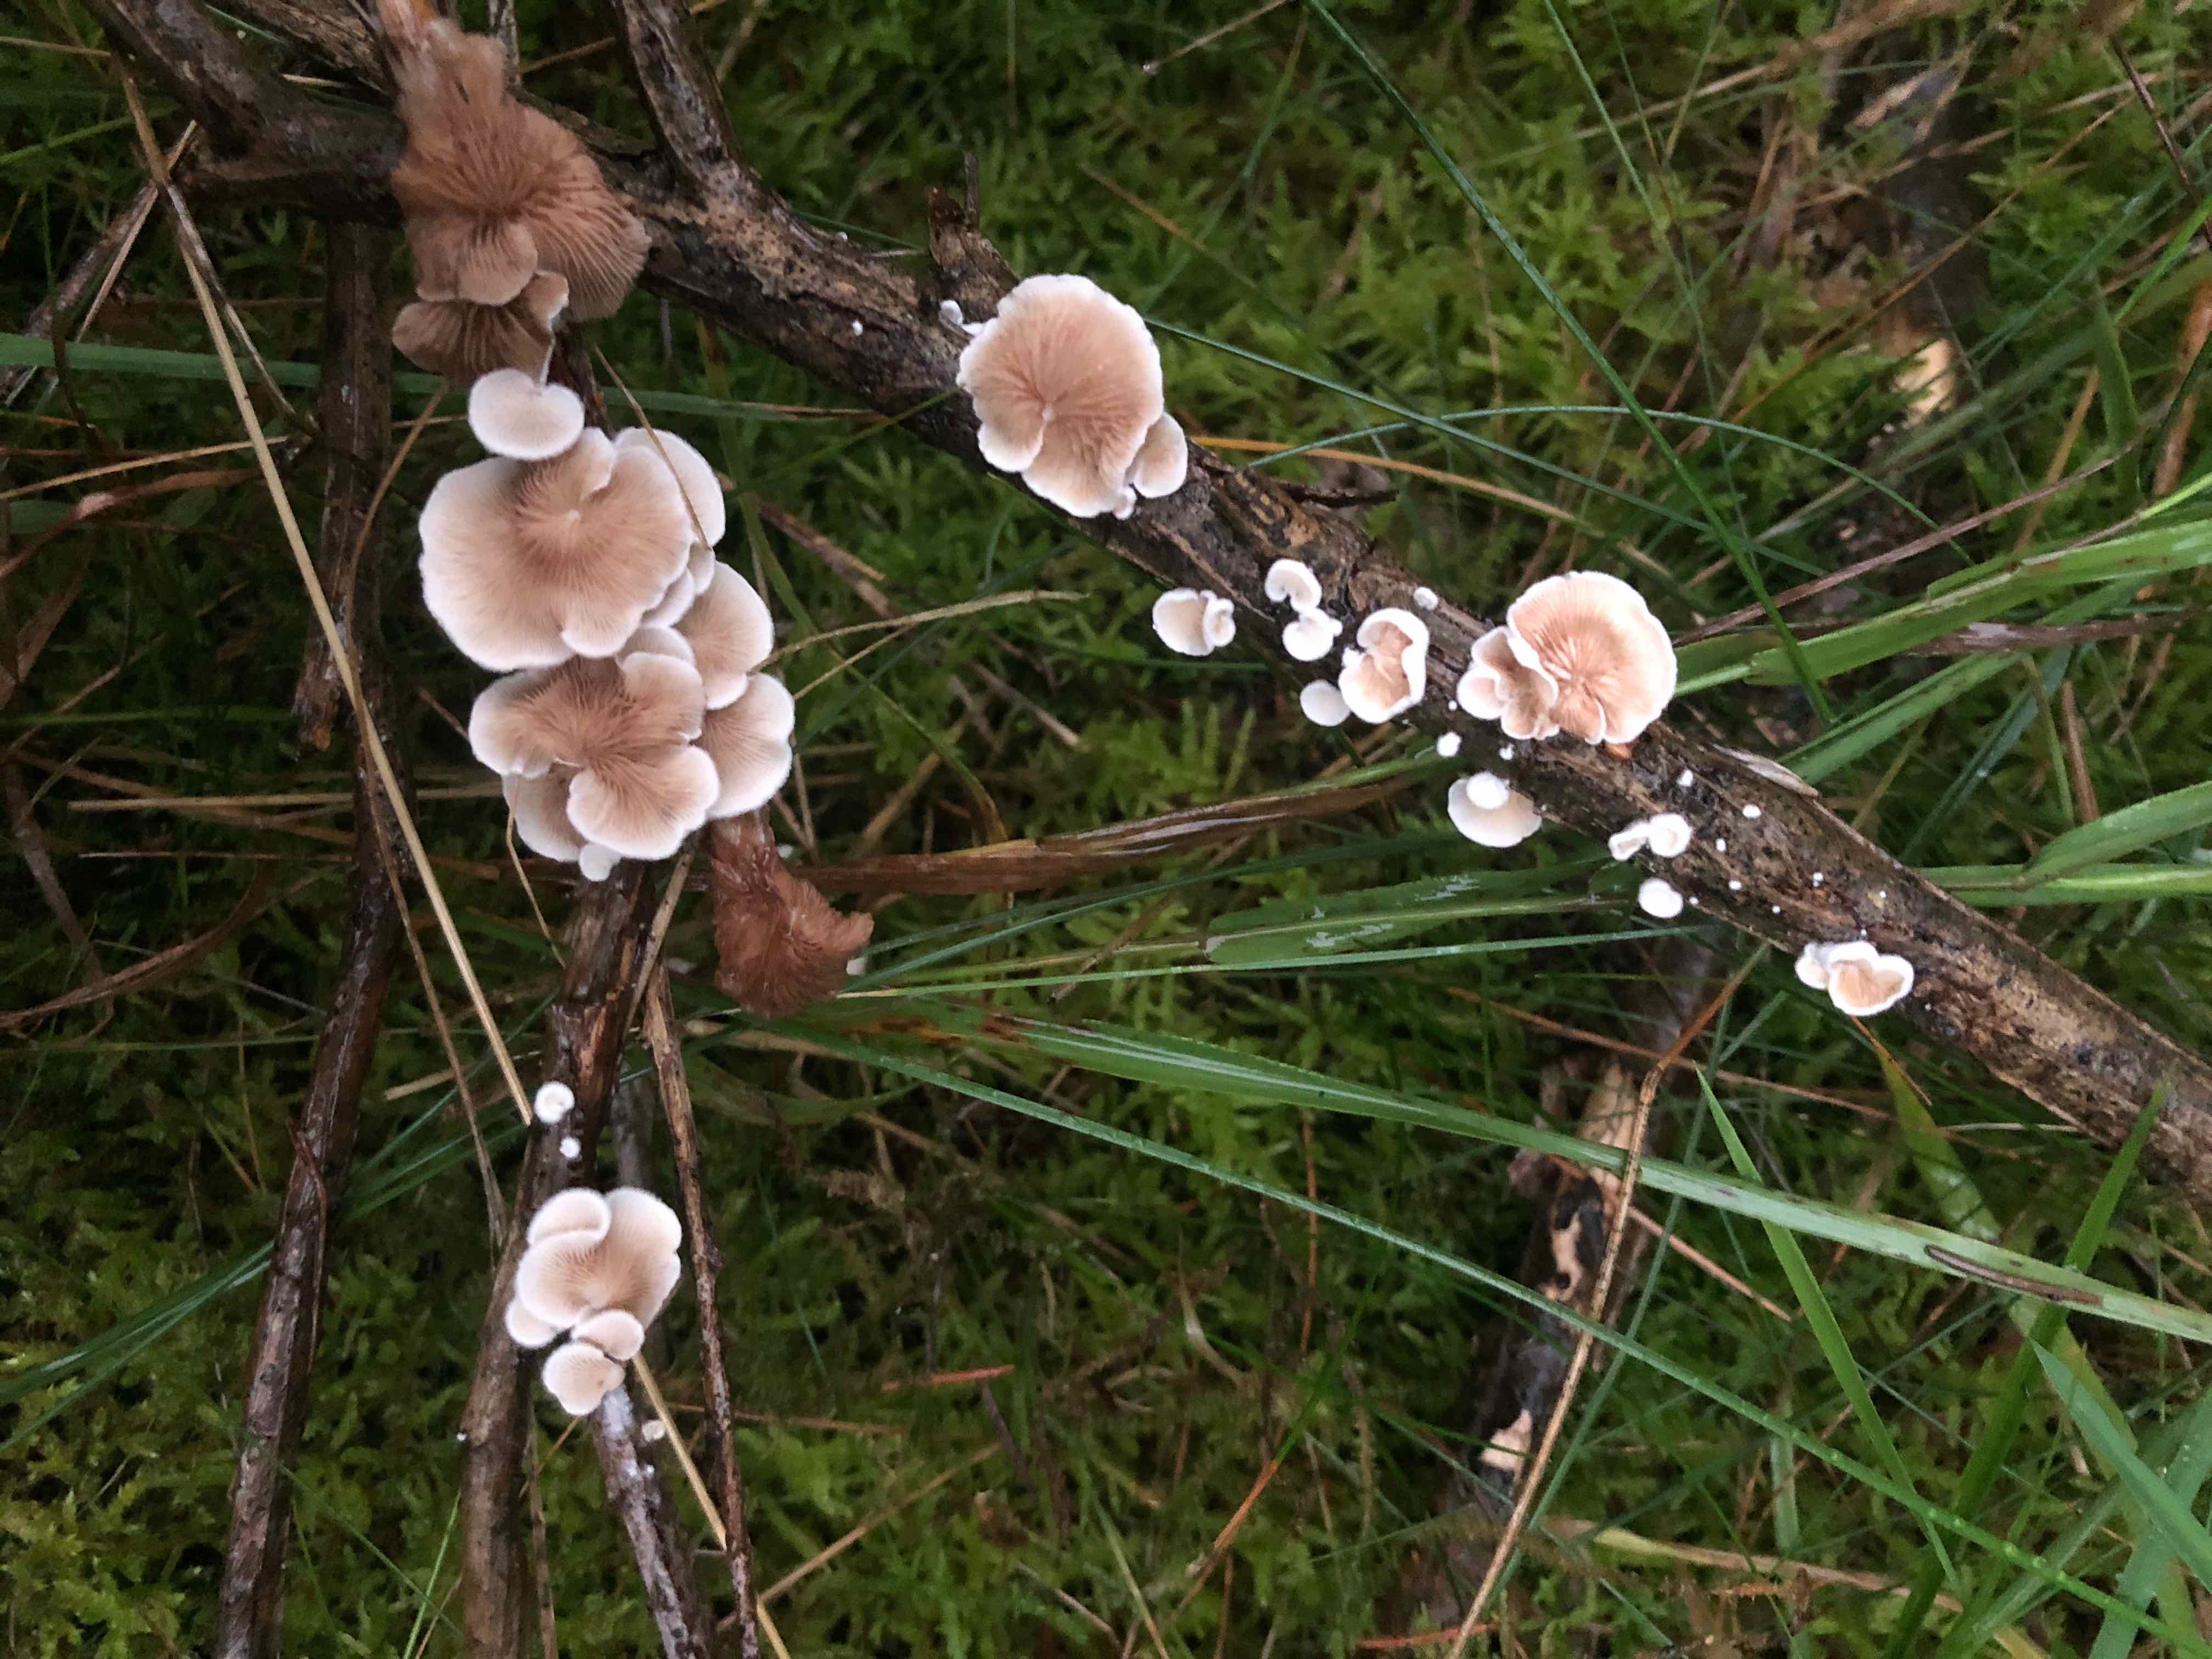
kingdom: Fungi
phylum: Basidiomycota
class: Agaricomycetes
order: Agaricales
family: Crepidotaceae
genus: Crepidotus
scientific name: Crepidotus
